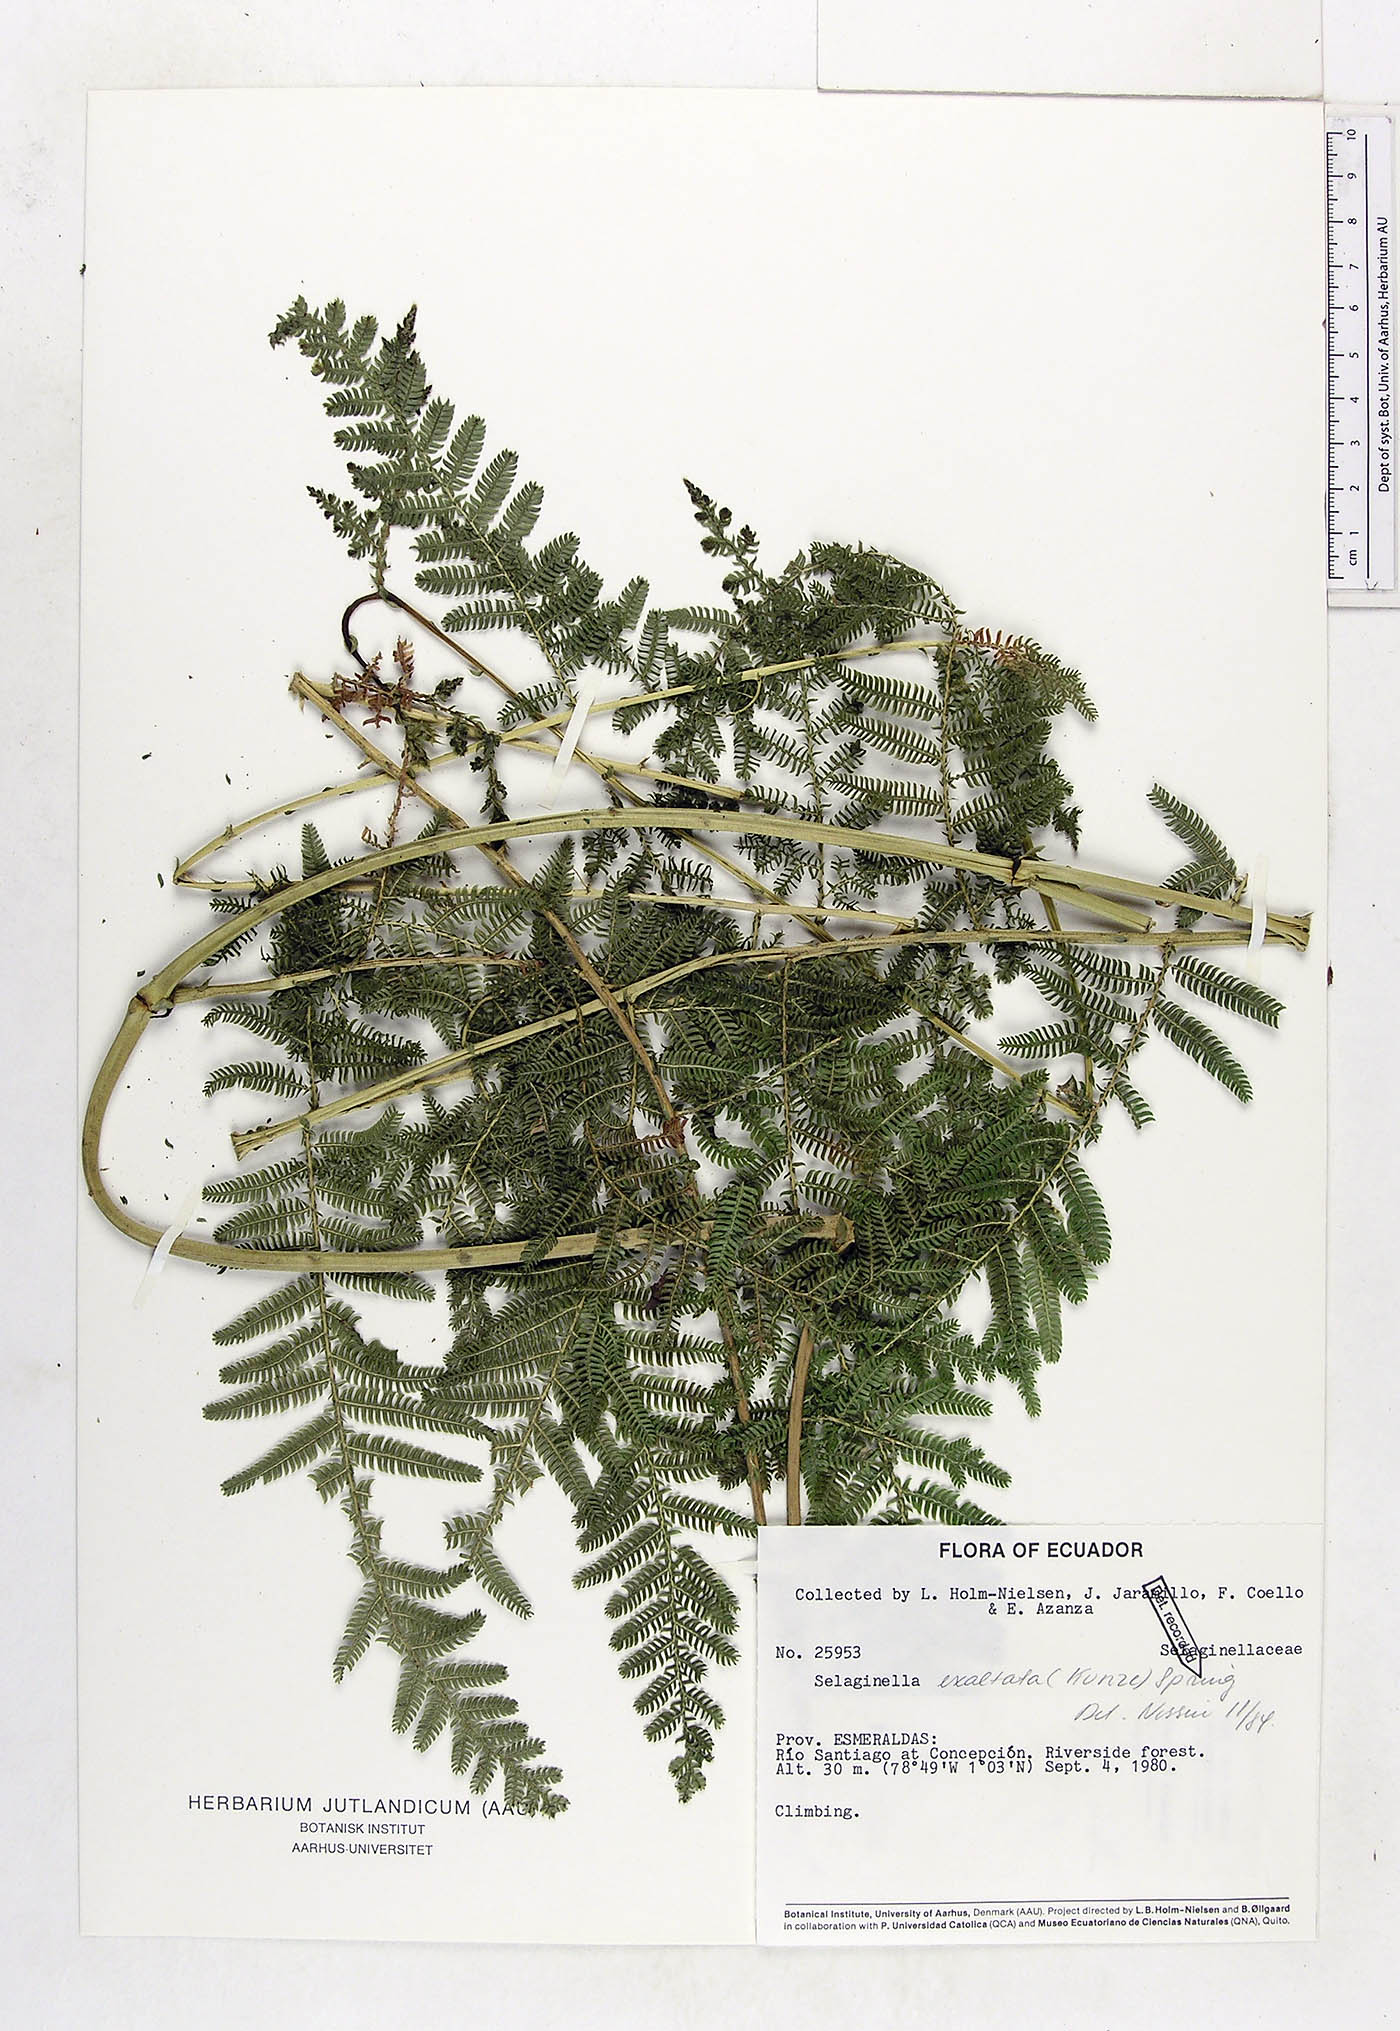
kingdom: Plantae
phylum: Tracheophyta
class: Lycopodiopsida
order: Selaginellales
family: Selaginellaceae
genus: Selaginella
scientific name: Selaginella exaltata
